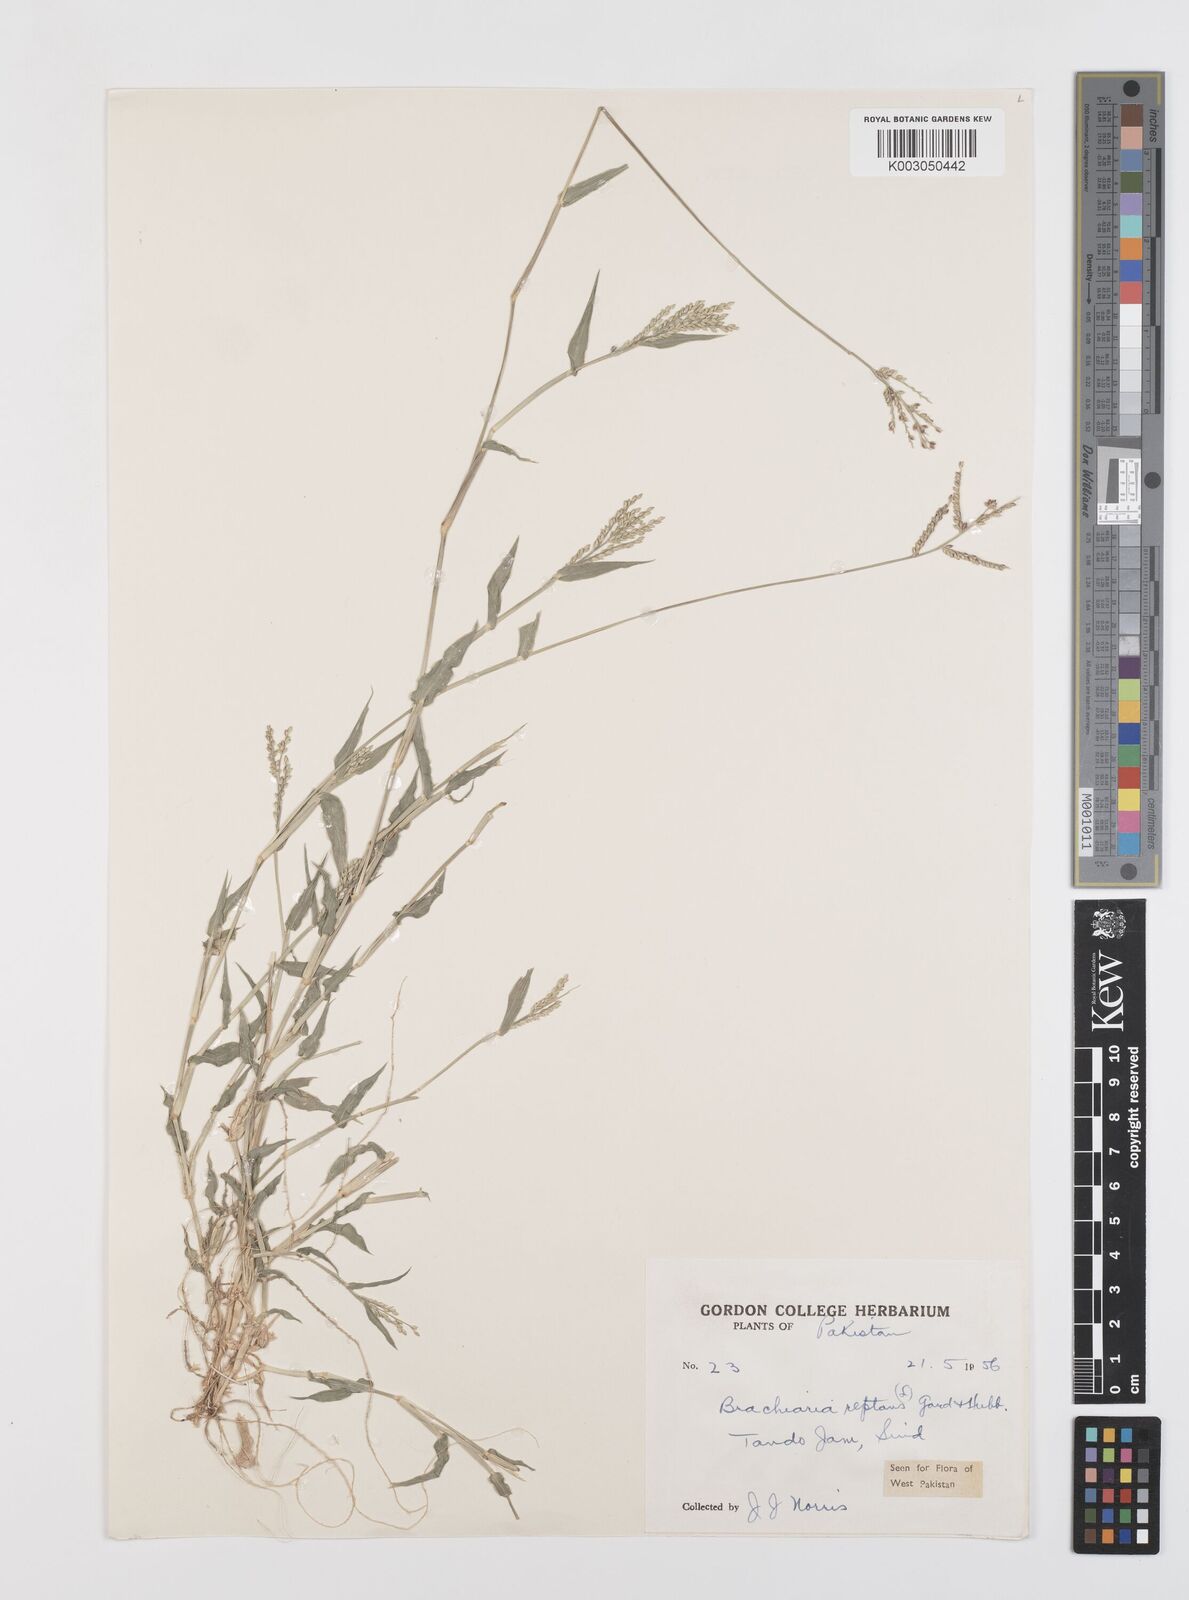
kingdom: Plantae
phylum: Tracheophyta
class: Liliopsida
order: Poales
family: Poaceae
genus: Urochloa
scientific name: Urochloa reptans
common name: Sprawling signalgrass
